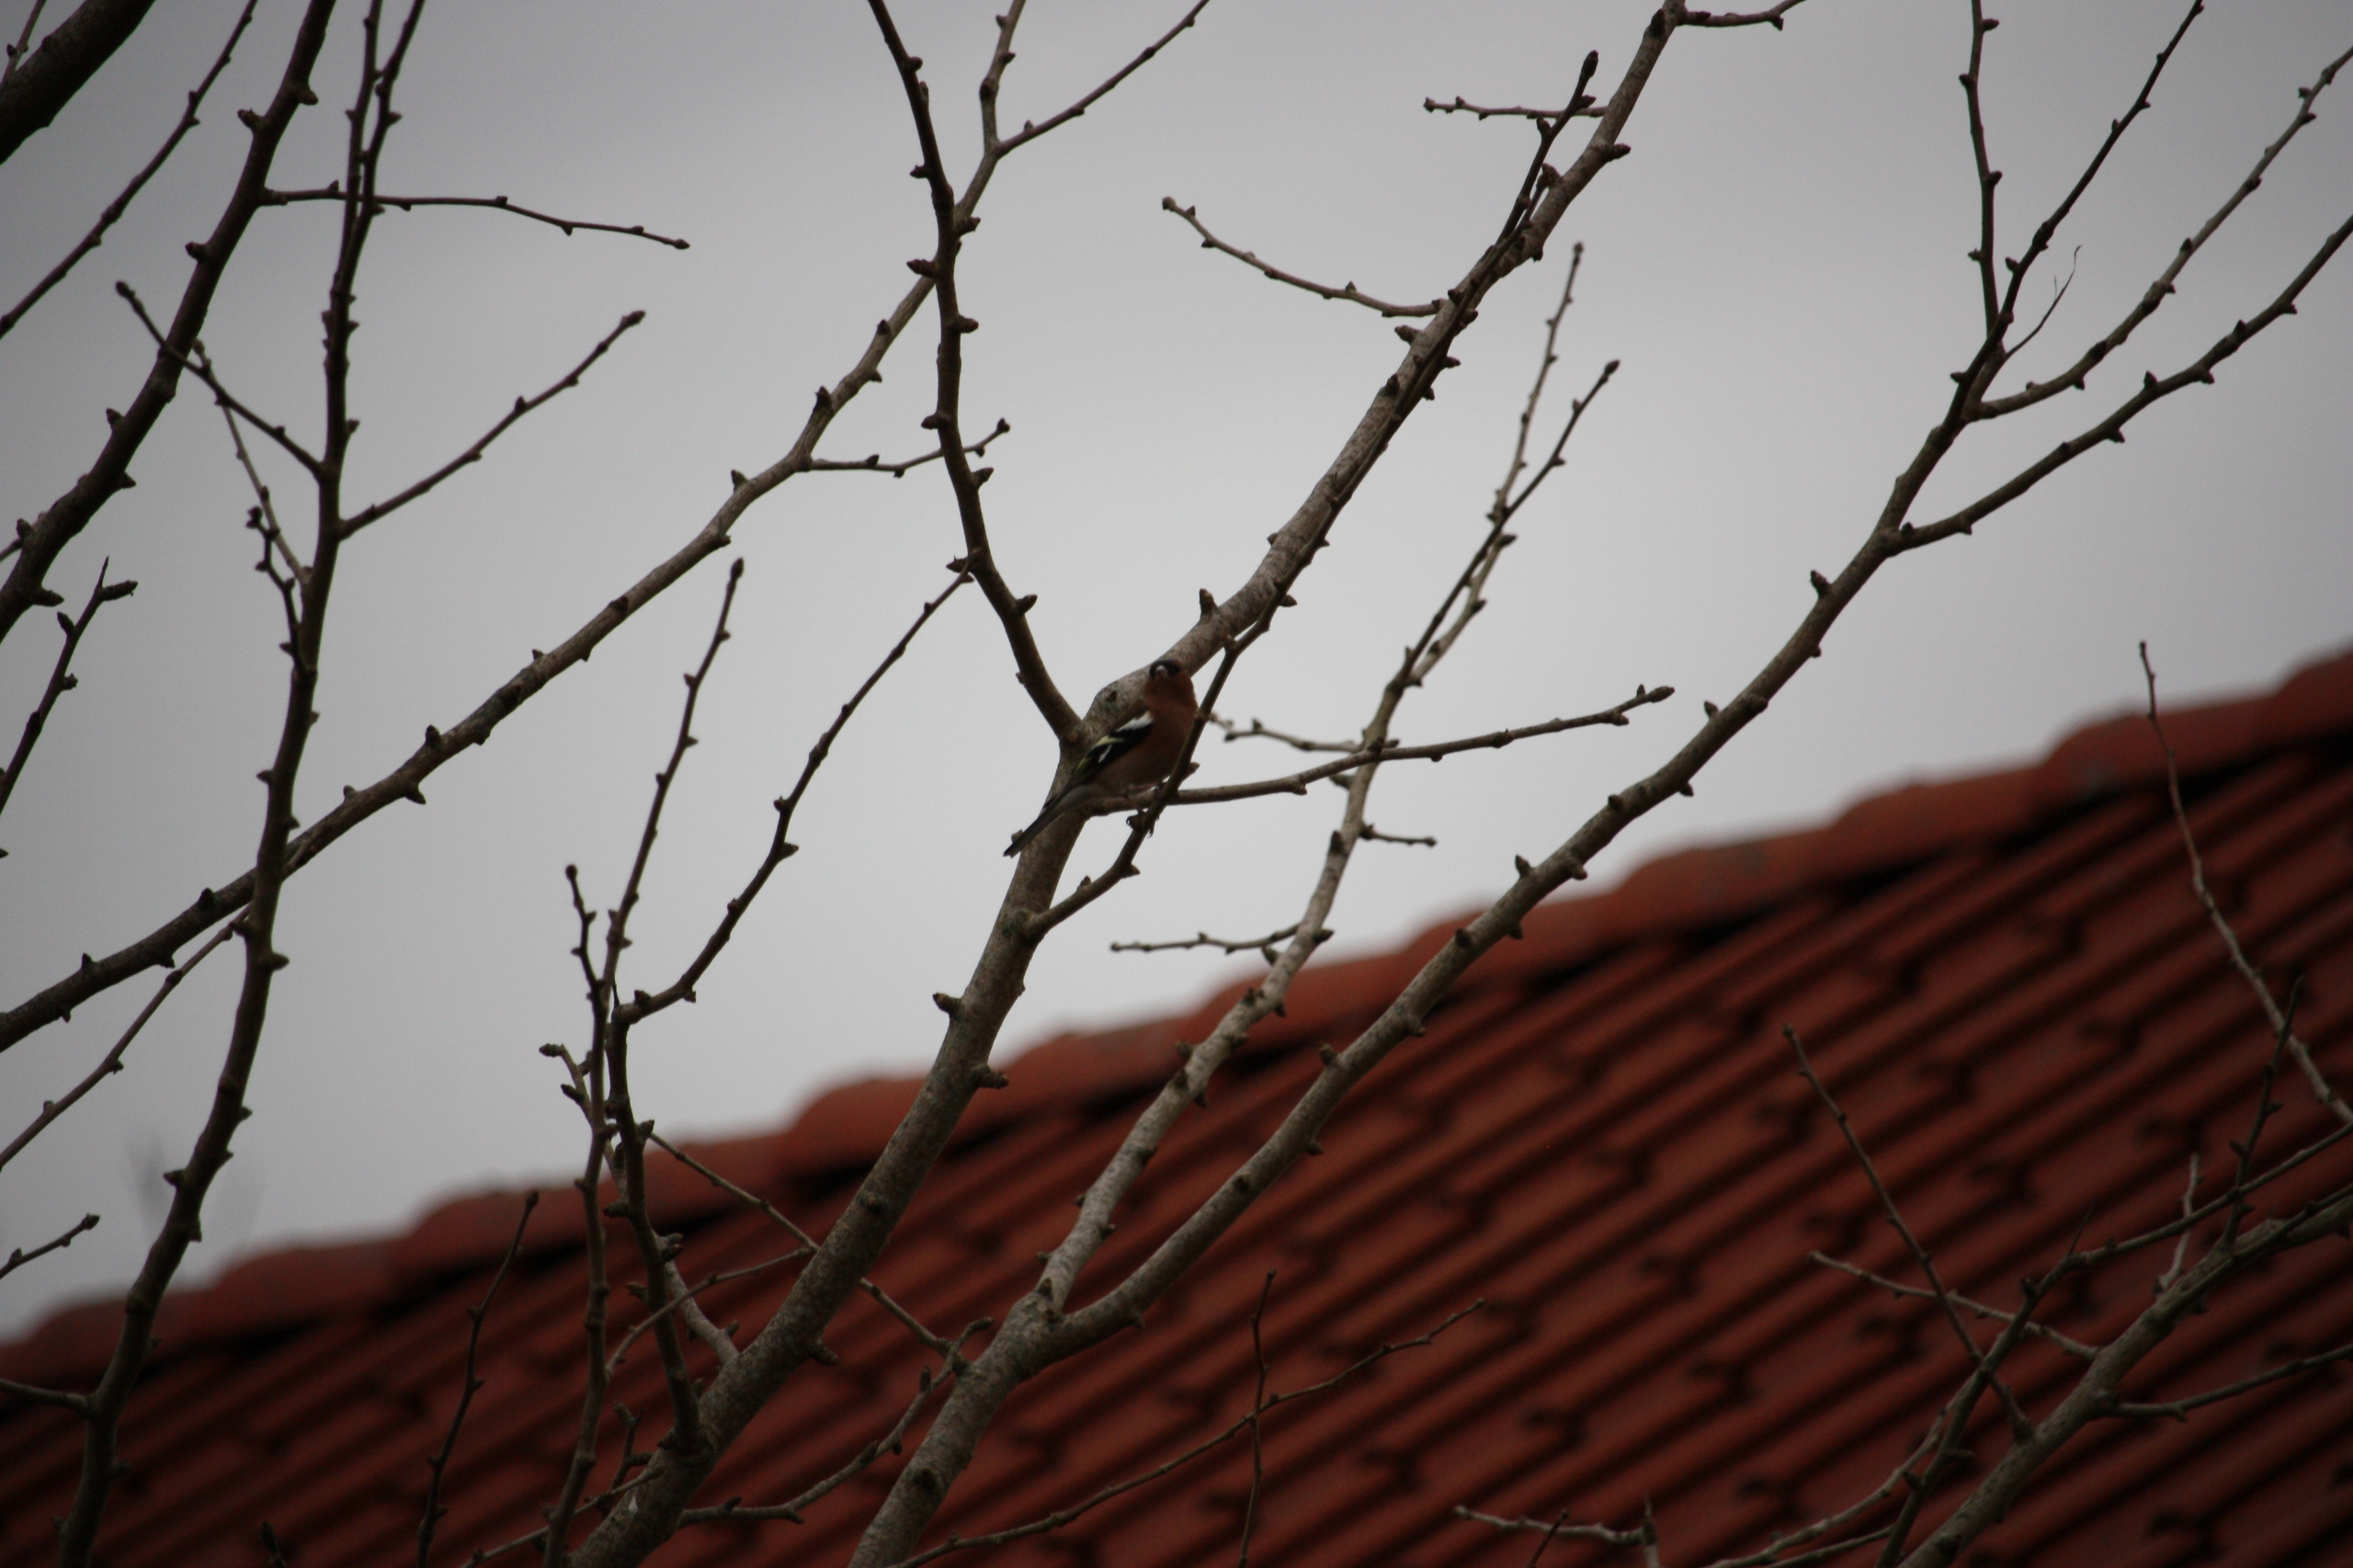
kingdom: Animalia
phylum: Chordata
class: Aves
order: Passeriformes
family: Fringillidae
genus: Fringilla
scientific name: Fringilla coelebs
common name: Bogfinke
